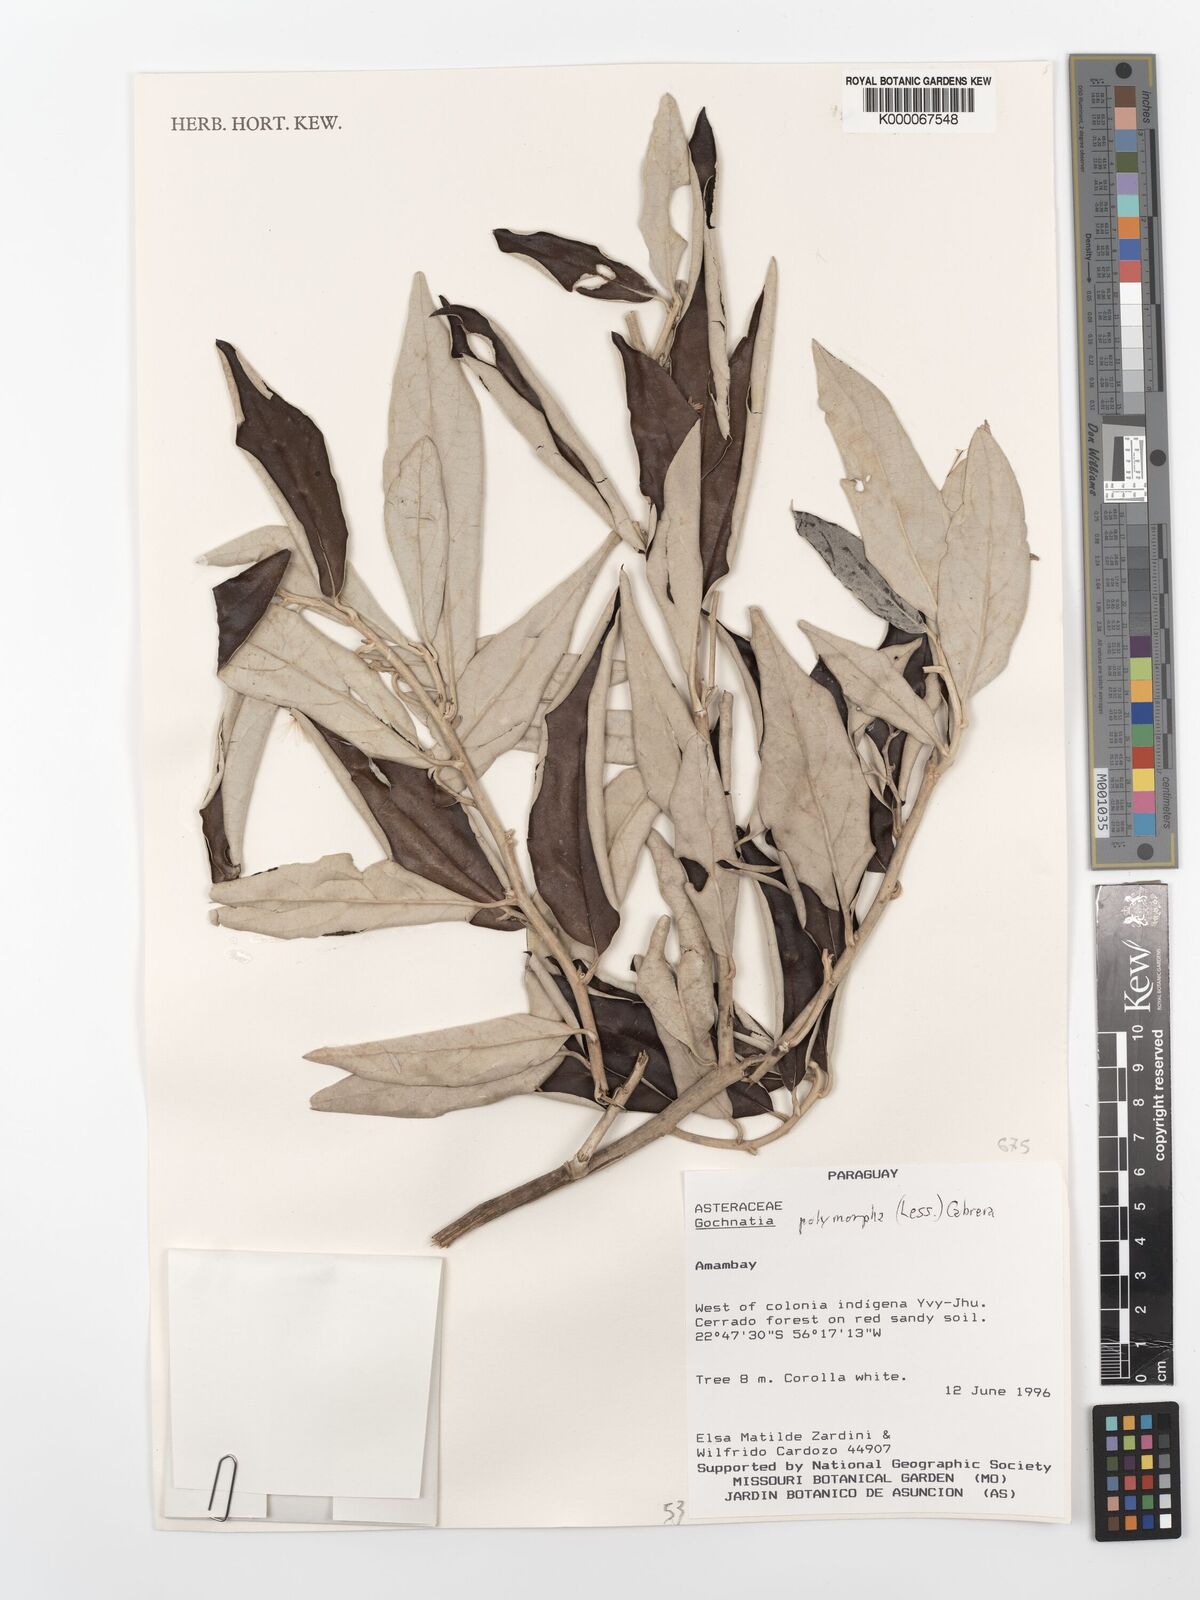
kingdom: Plantae
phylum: Tracheophyta
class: Magnoliopsida
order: Asterales
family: Asteraceae
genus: Moquiniastrum
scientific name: Moquiniastrum polymorphum
